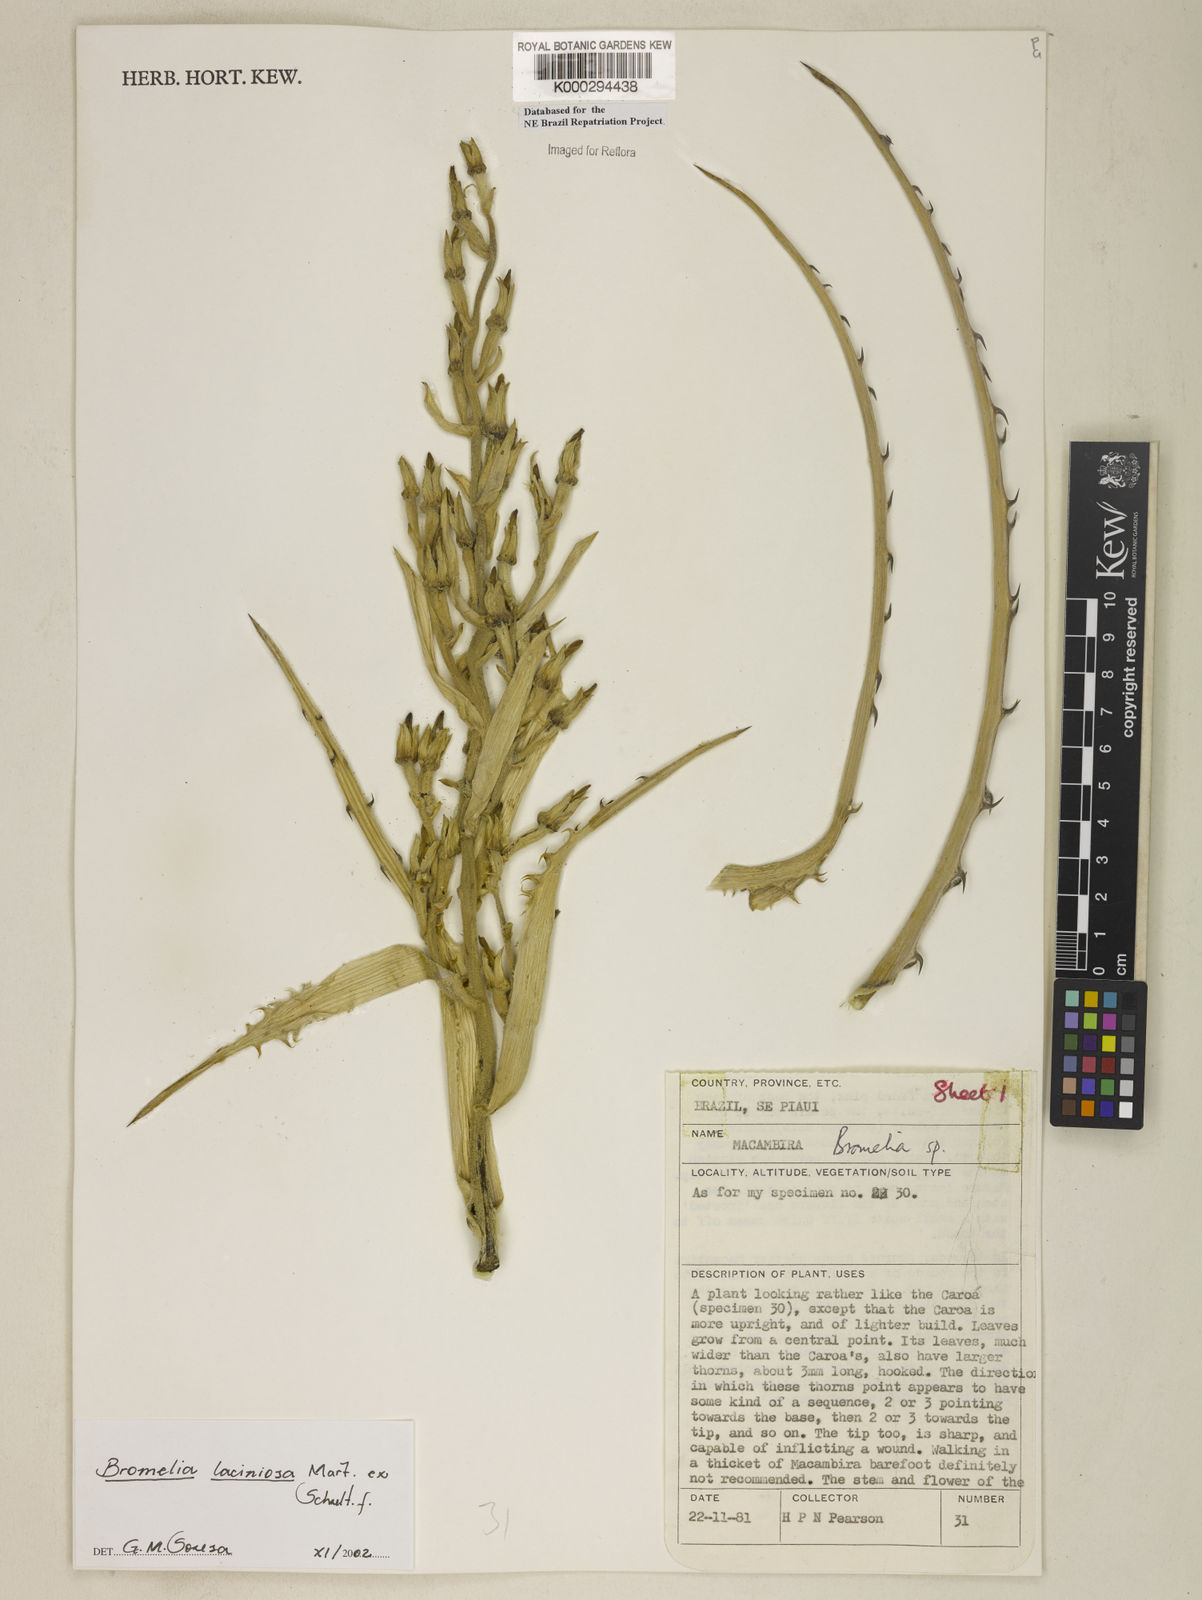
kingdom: Plantae
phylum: Tracheophyta
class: Liliopsida
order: Poales
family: Bromeliaceae
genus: Bromelia
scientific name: Bromelia laciniosa
